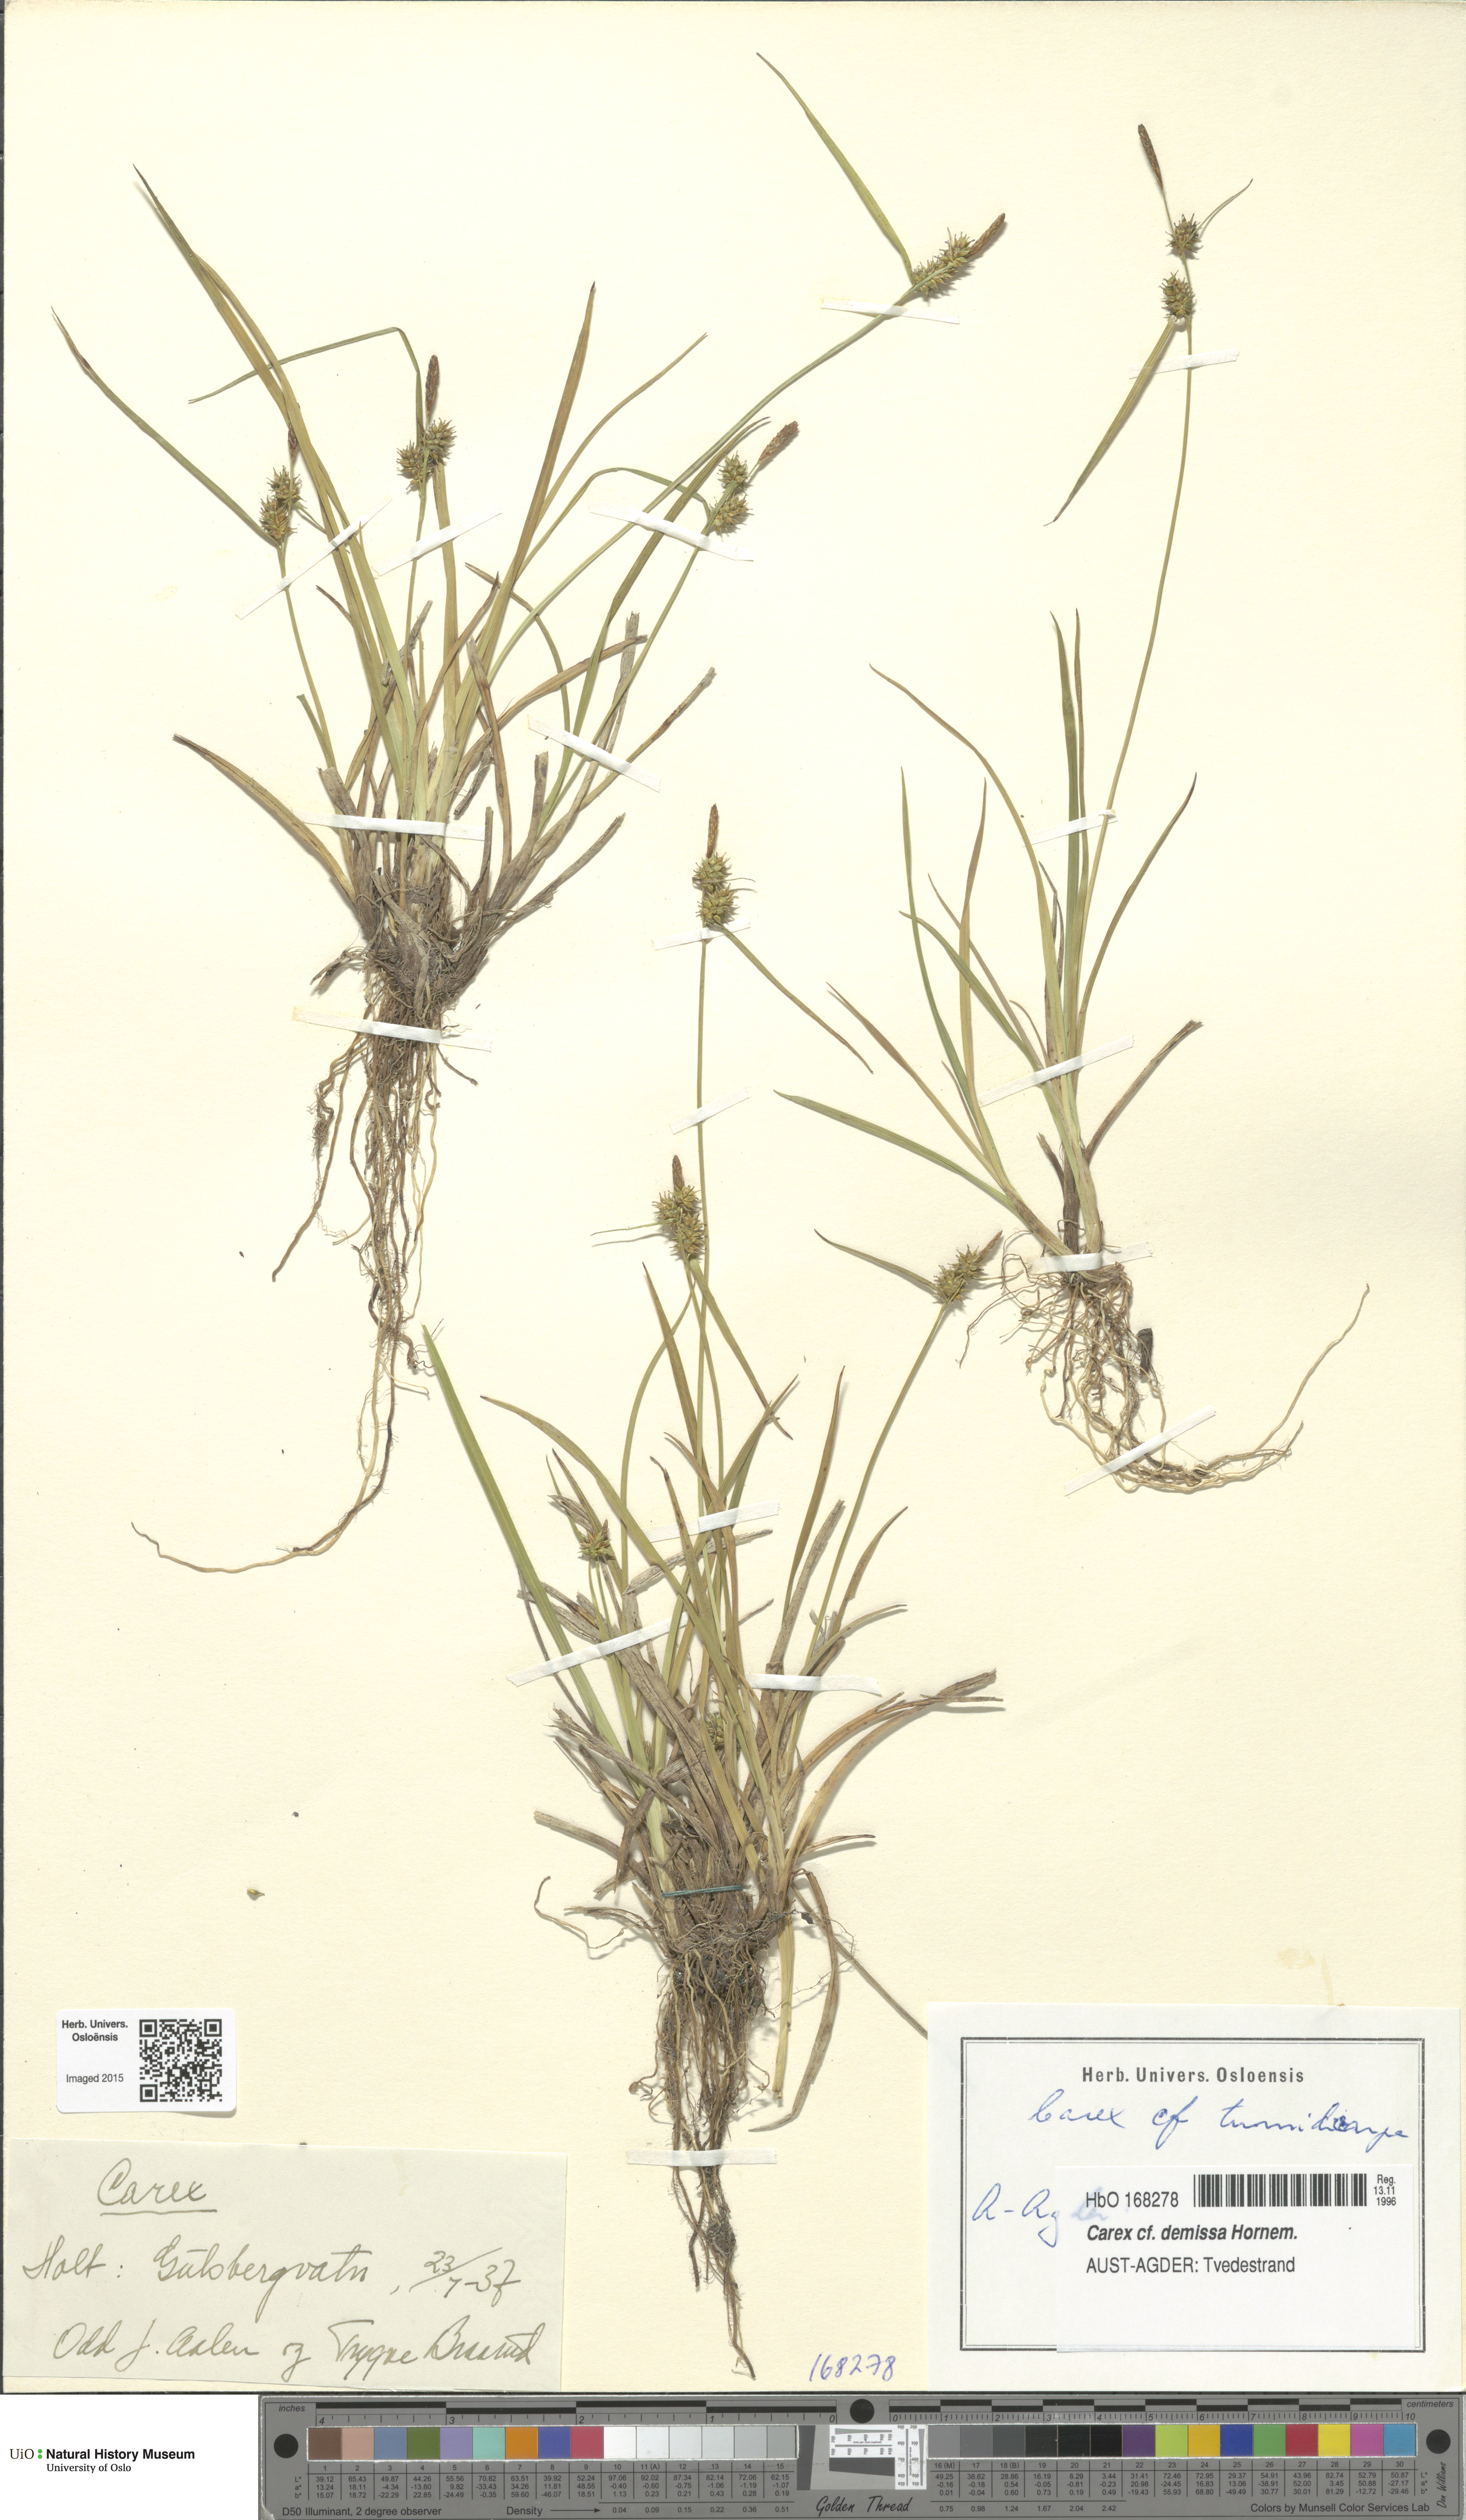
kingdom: Plantae
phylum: Tracheophyta
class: Liliopsida
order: Poales
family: Cyperaceae
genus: Carex
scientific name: Carex demissa
